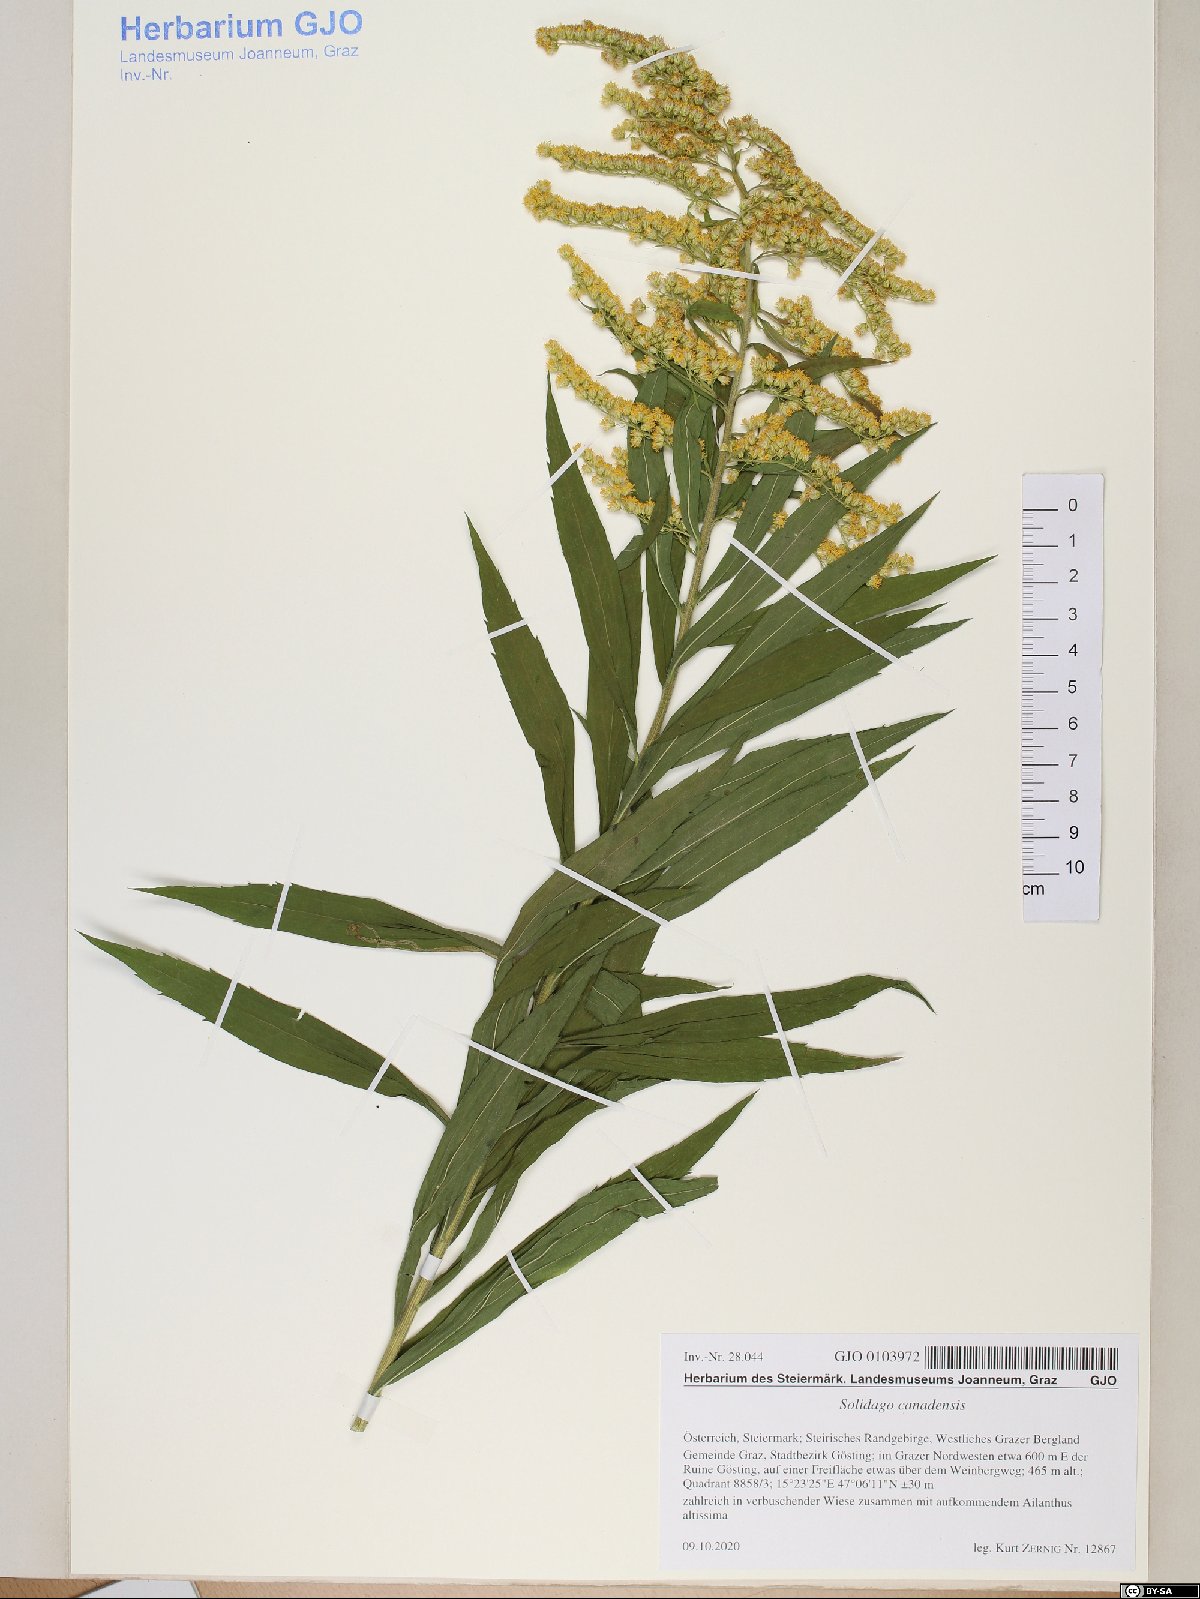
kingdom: Plantae
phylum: Tracheophyta
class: Magnoliopsida
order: Asterales
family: Asteraceae
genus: Solidago
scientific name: Solidago canadensis
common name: Canada goldenrod
